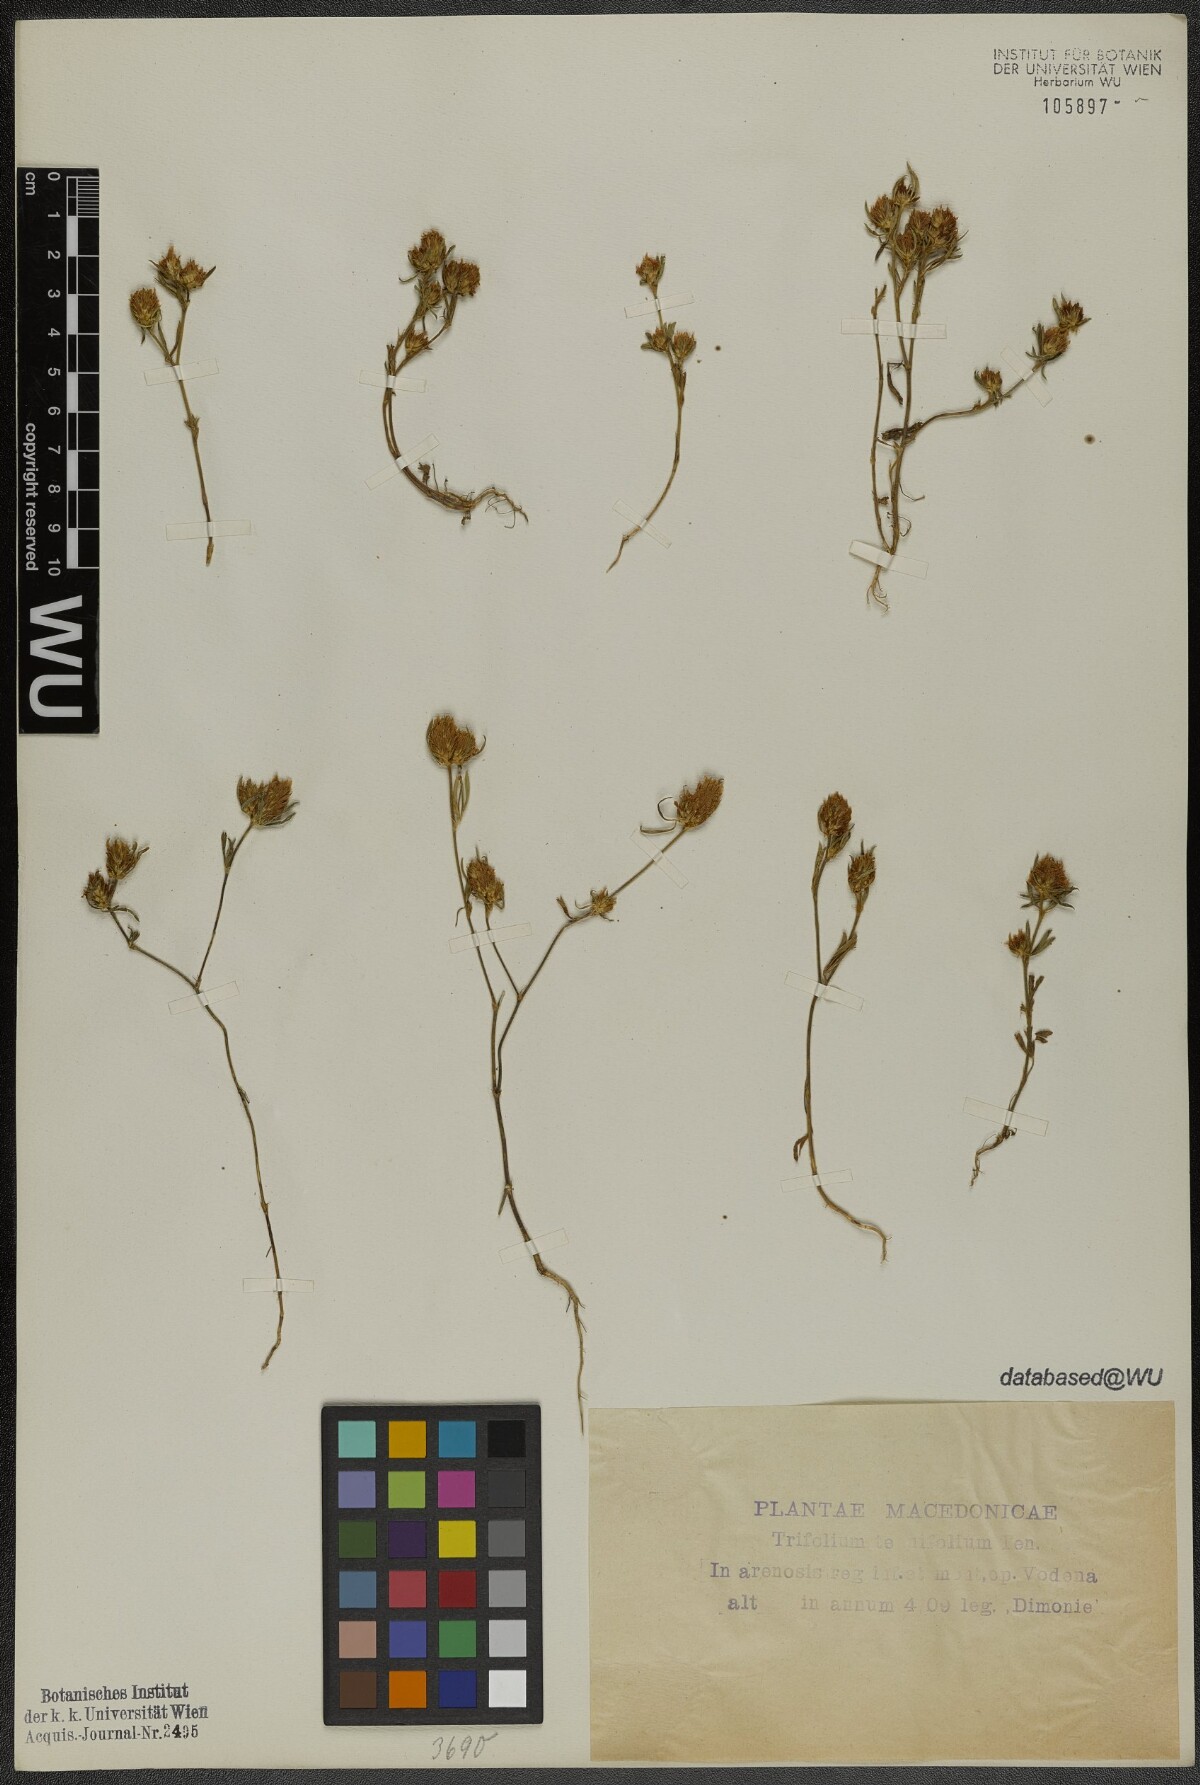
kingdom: Plantae
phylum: Tracheophyta
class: Magnoliopsida
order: Fabales
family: Fabaceae
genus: Trifolium
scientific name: Trifolium tenuifolium
